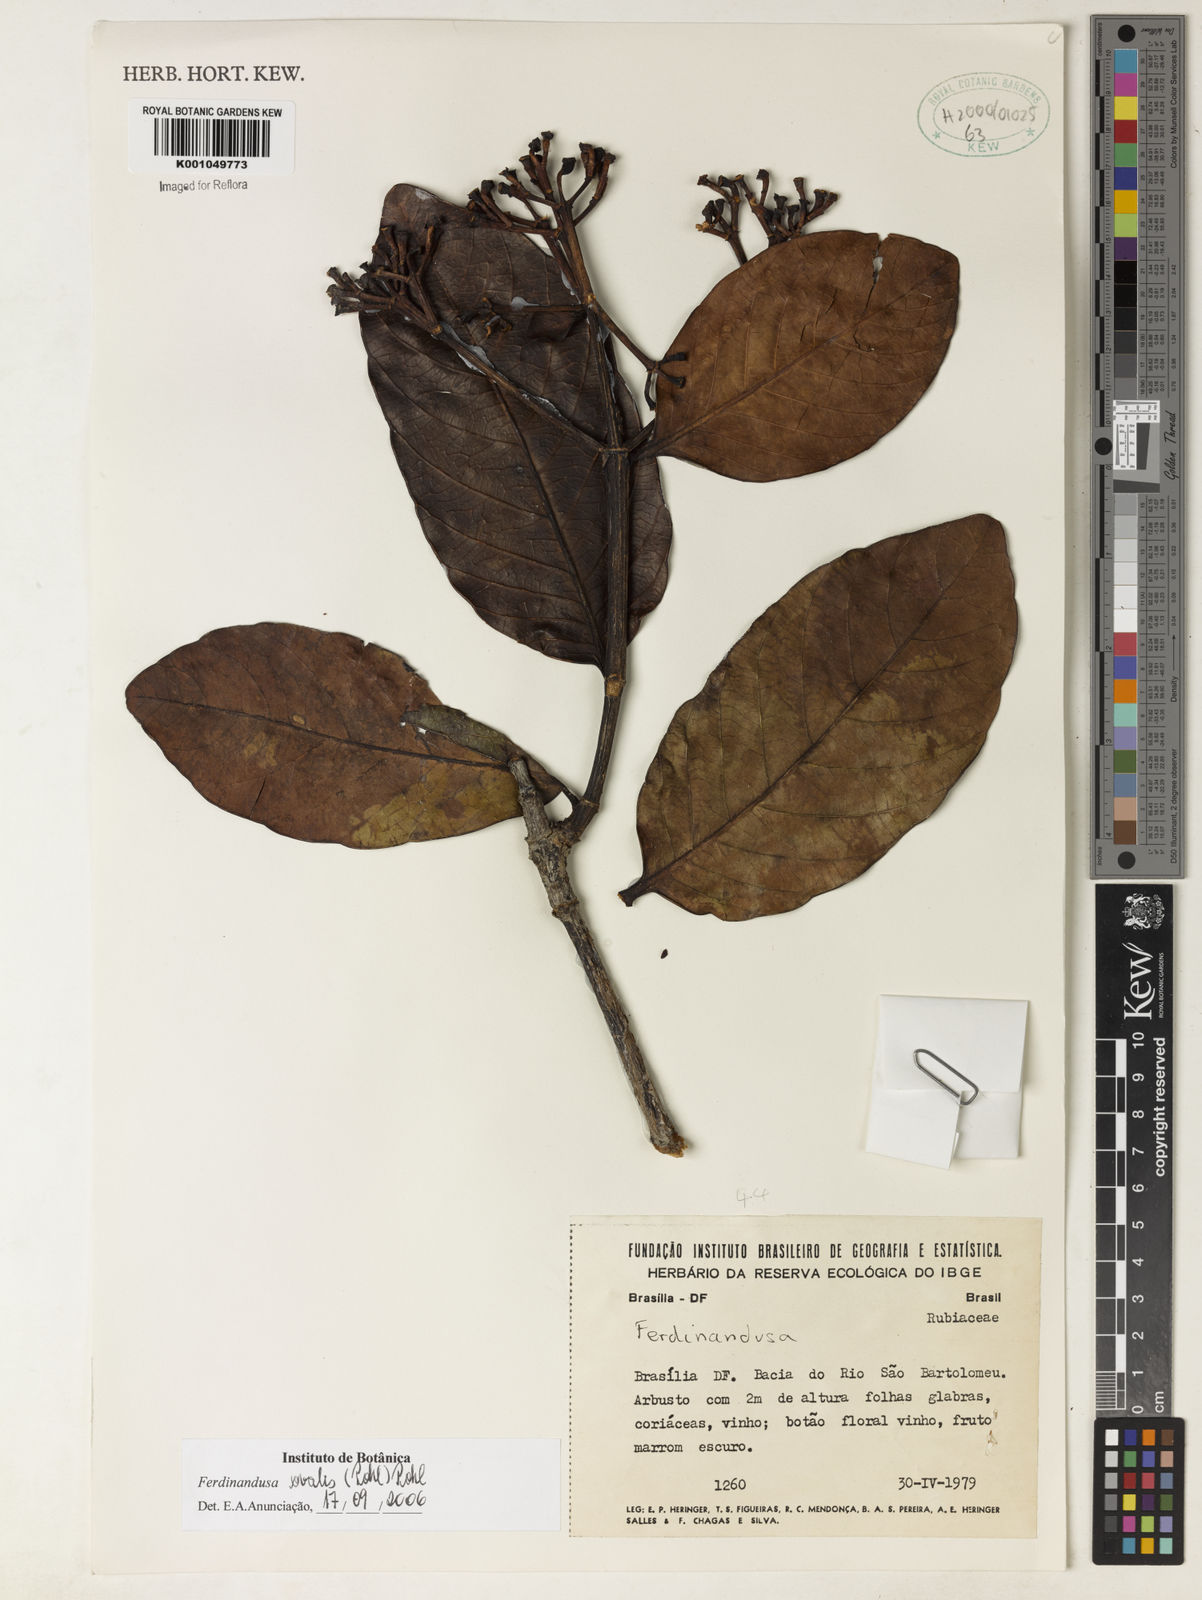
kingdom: Plantae
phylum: Tracheophyta
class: Magnoliopsida
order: Gentianales
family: Rubiaceae
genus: Ferdinandusa
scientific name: Ferdinandusa elliptica
